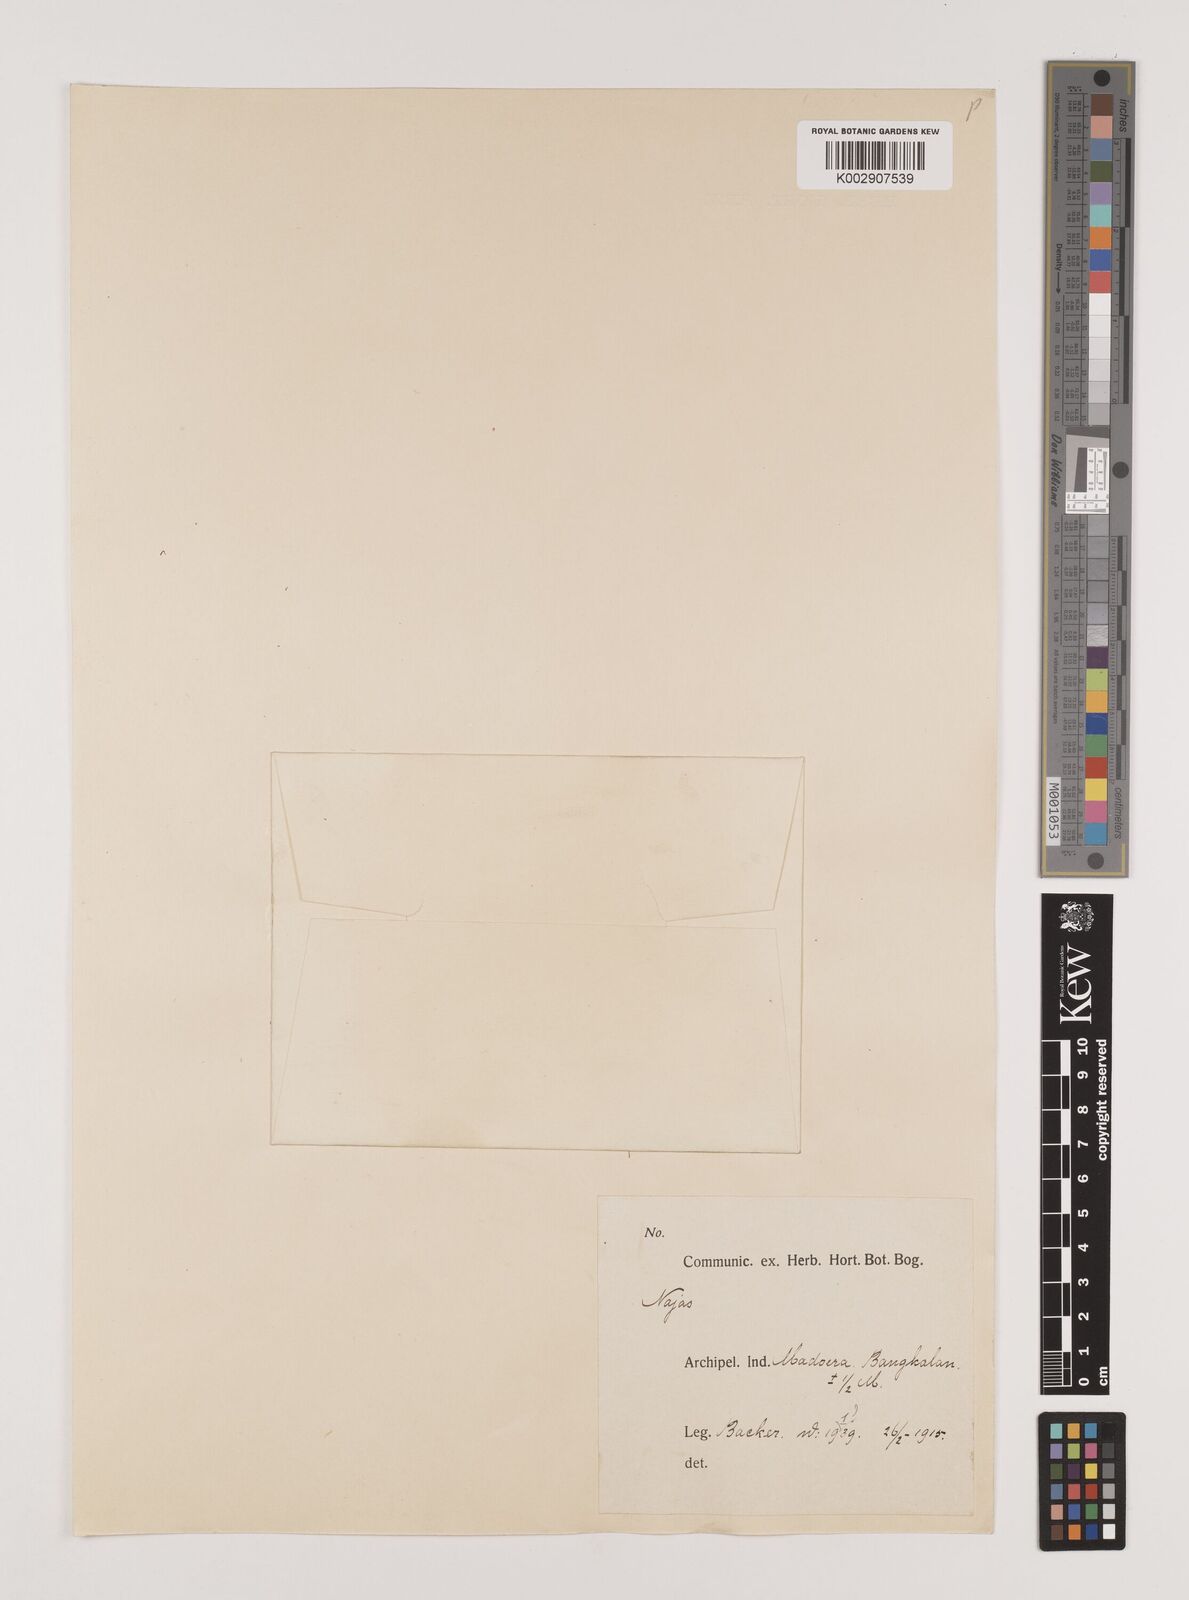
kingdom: Plantae
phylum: Tracheophyta
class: Liliopsida
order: Alismatales
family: Hydrocharitaceae
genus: Najas
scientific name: Najas
